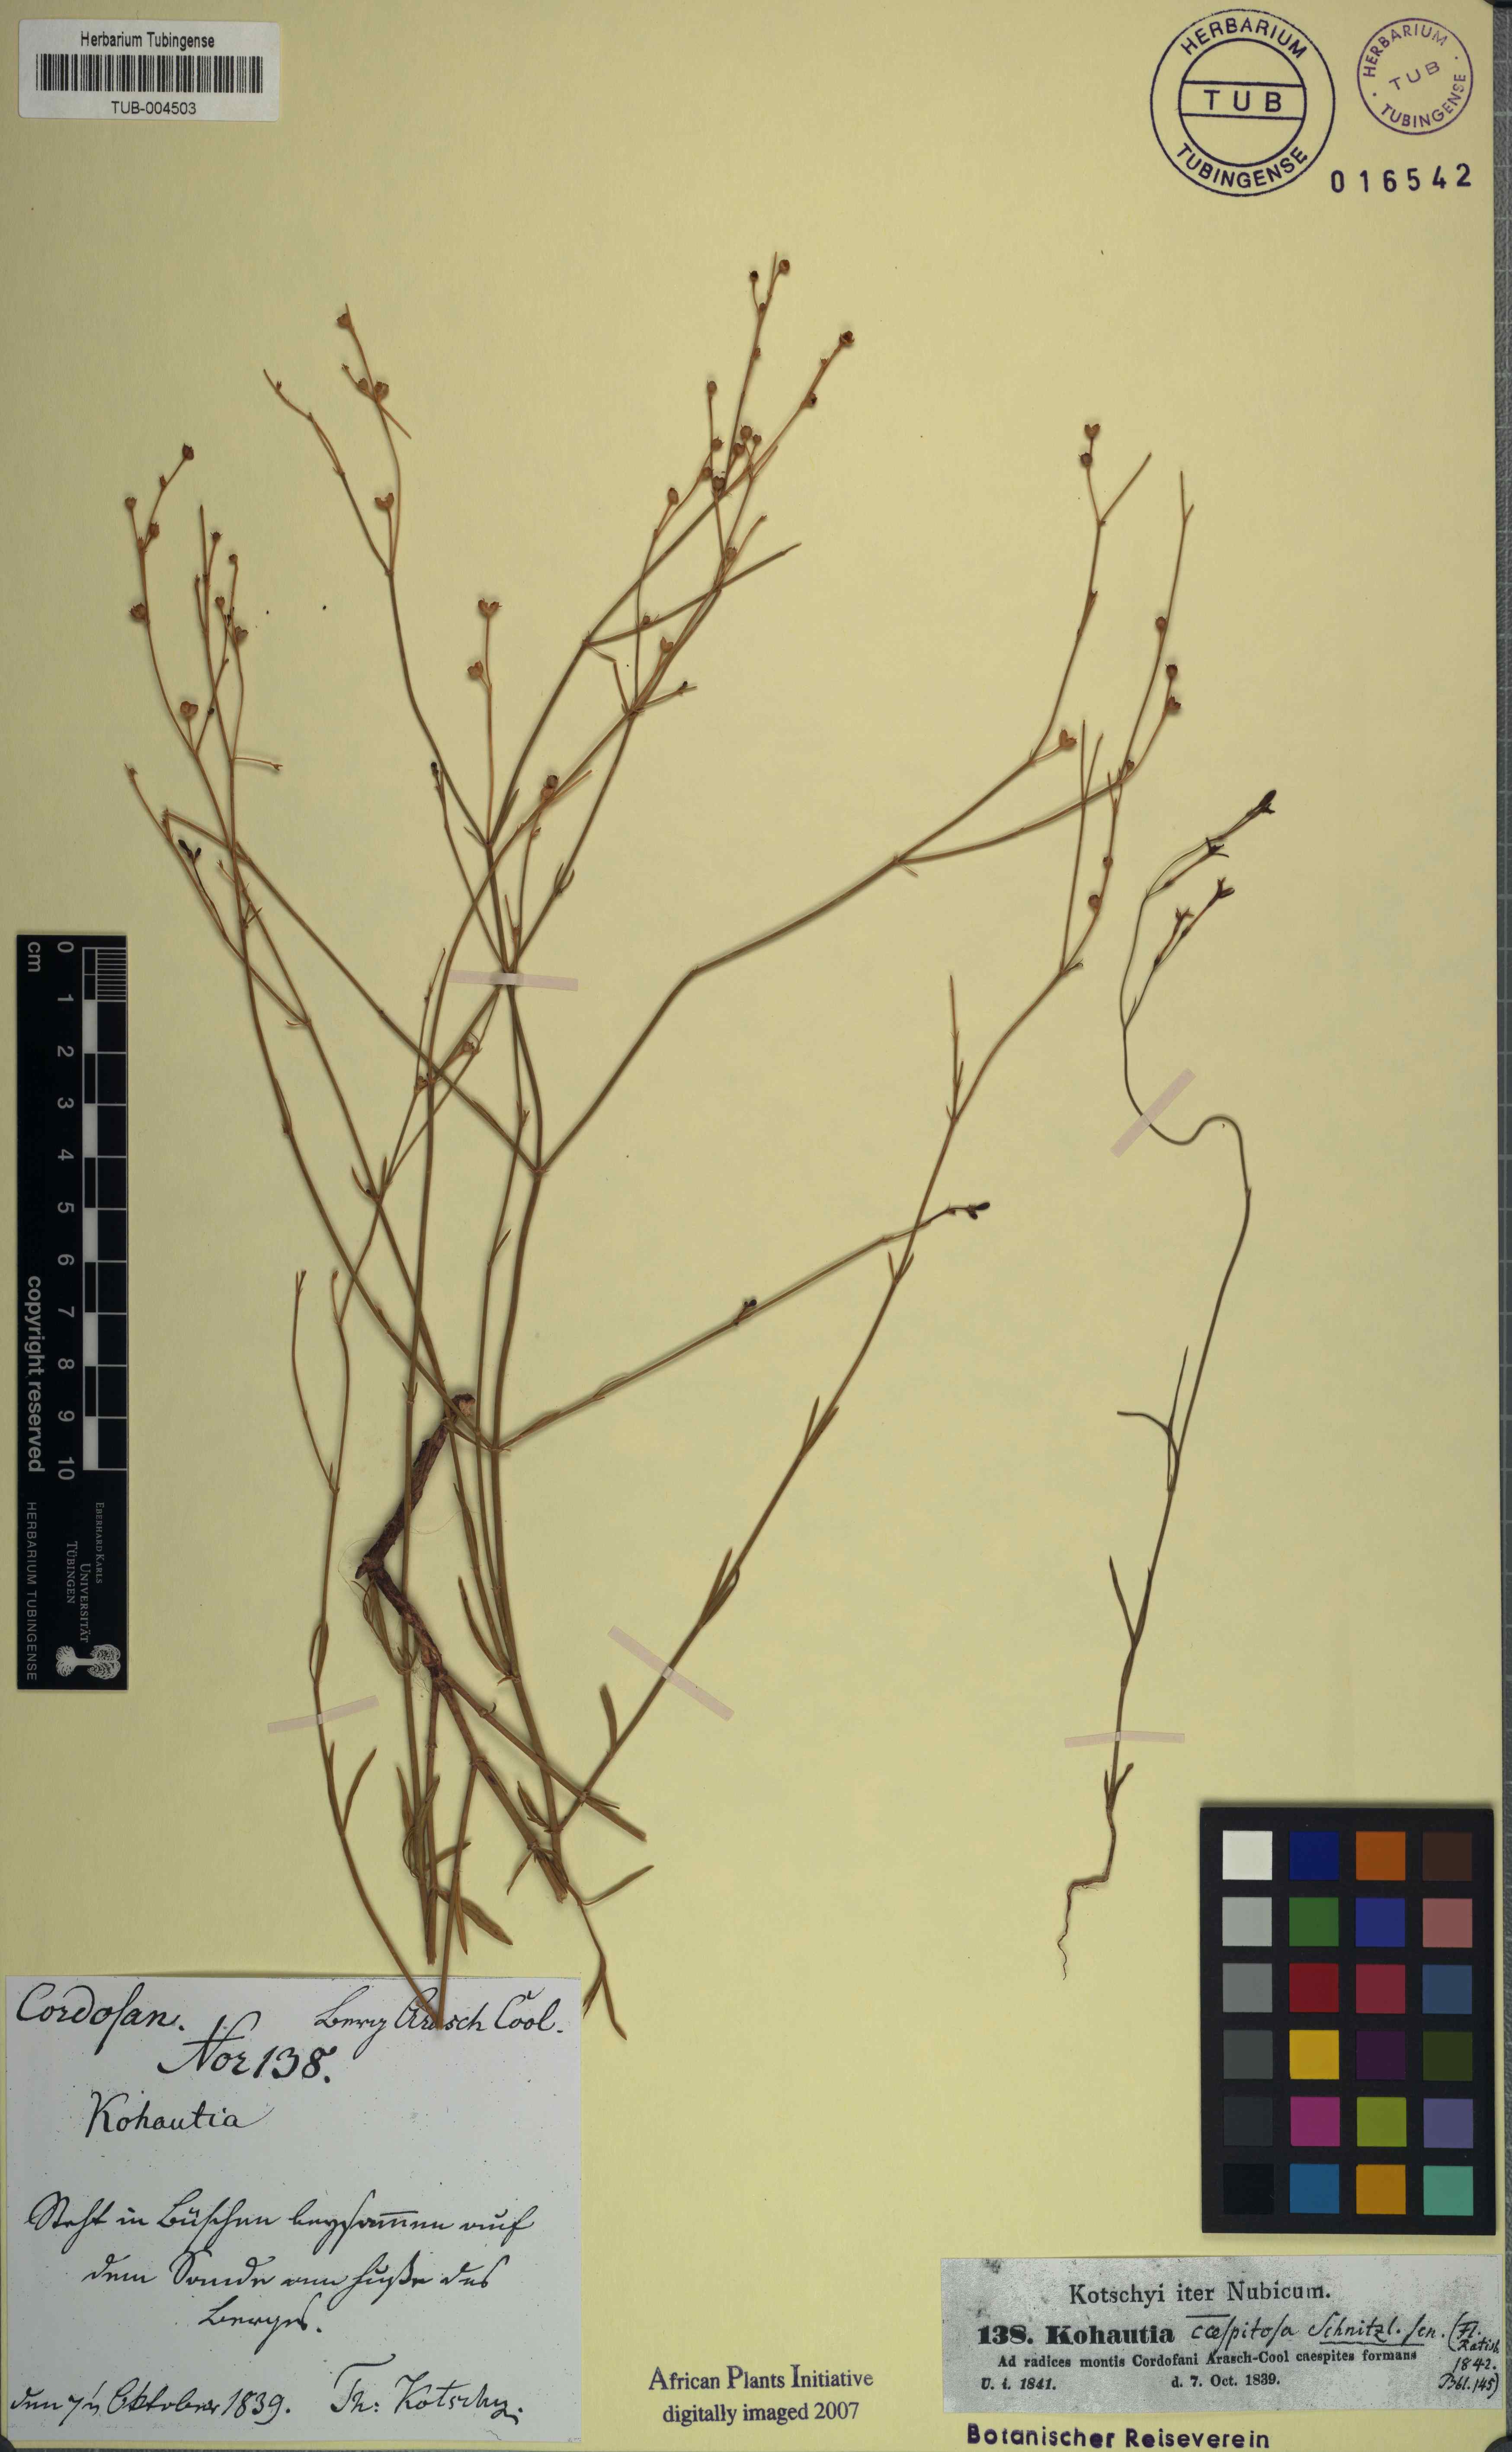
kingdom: Plantae
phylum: Tracheophyta
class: Magnoliopsida
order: Gentianales
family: Rubiaceae
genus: Kohautia
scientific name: Kohautia caespitosa
